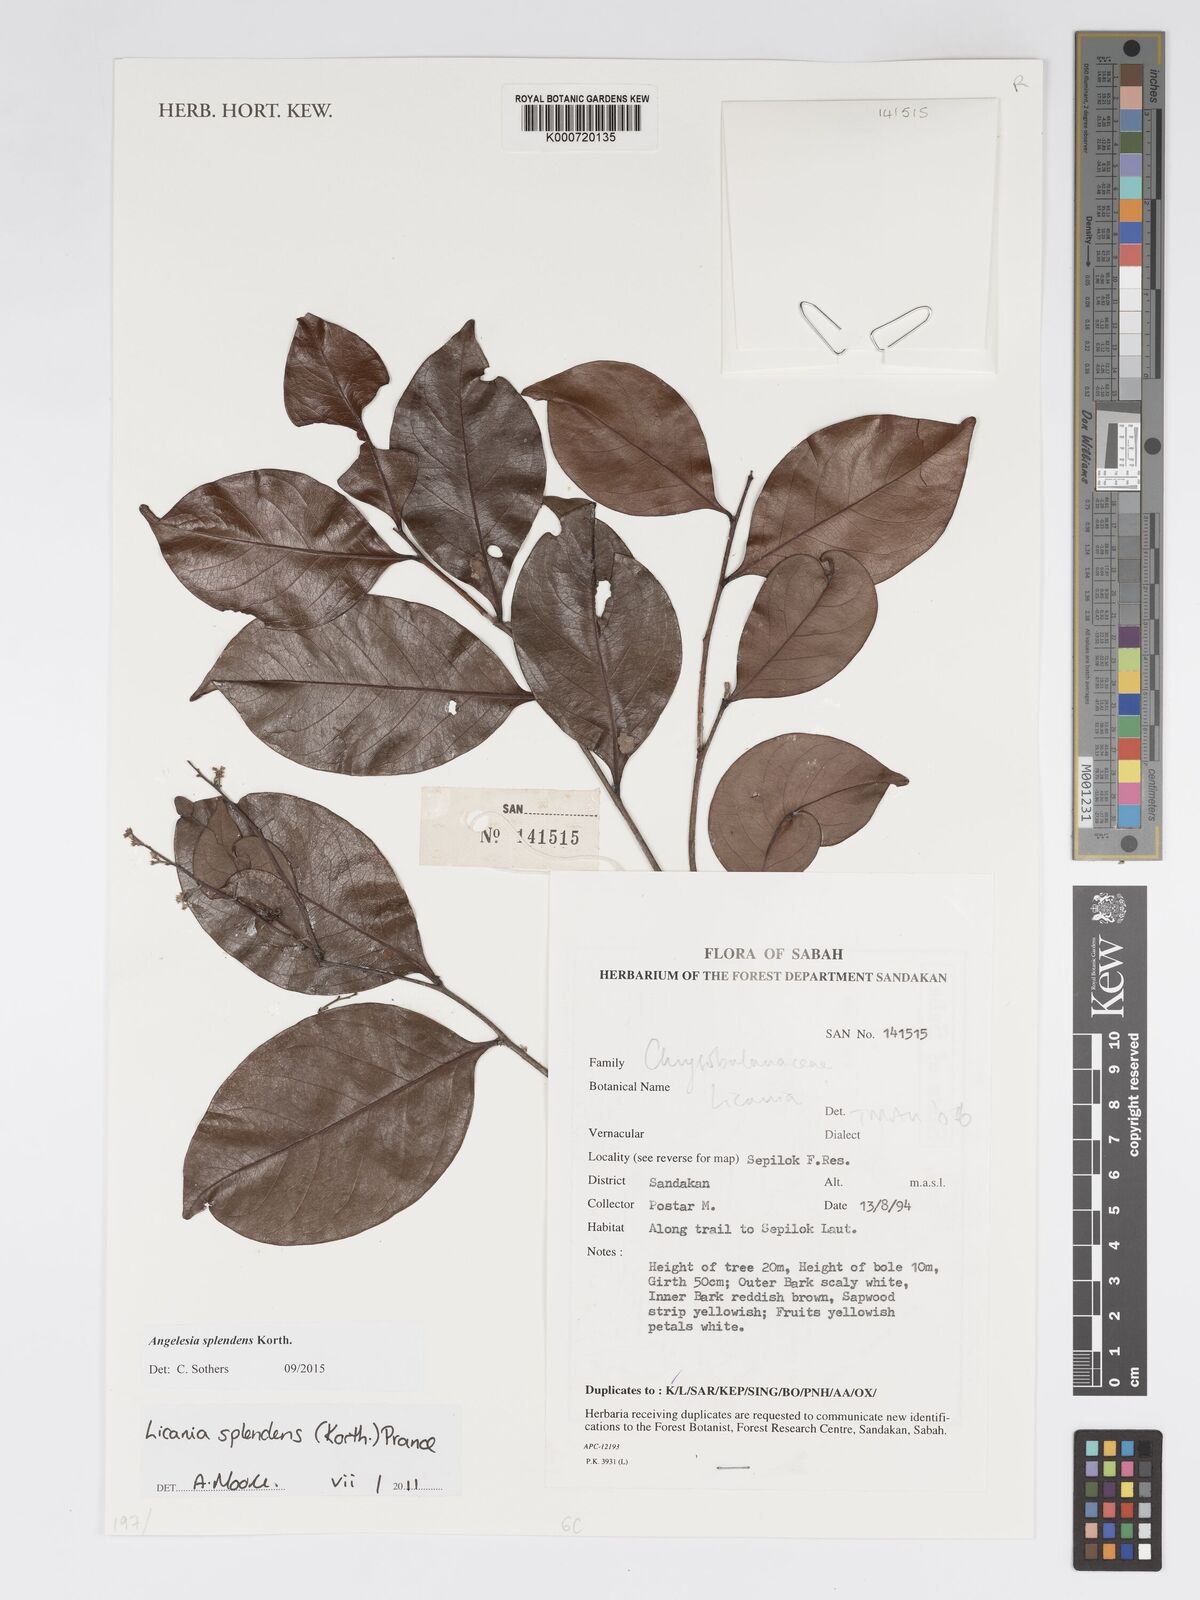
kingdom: Plantae
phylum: Tracheophyta
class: Magnoliopsida
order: Malpighiales
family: Chrysobalanaceae
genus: Angelesia
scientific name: Angelesia splendens
